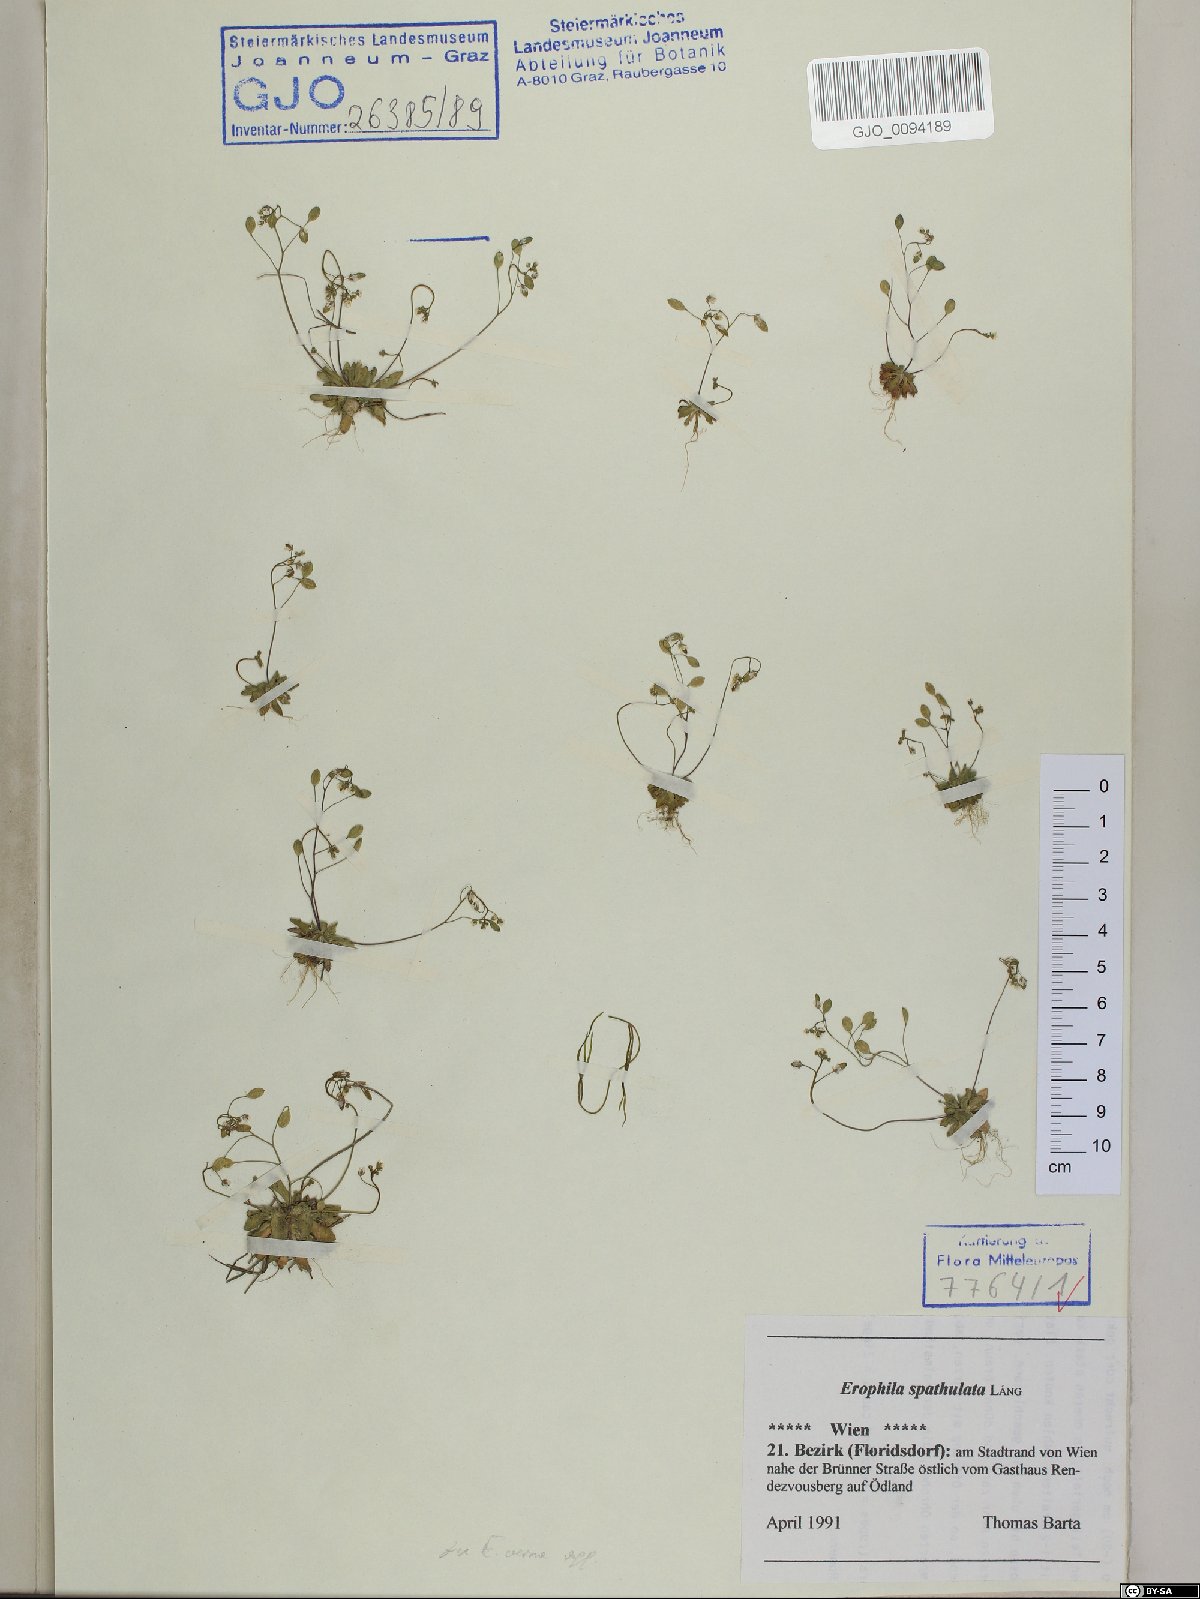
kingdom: Plantae
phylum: Tracheophyta
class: Magnoliopsida
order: Brassicales
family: Brassicaceae
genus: Draba
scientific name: Draba verna
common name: Spring draba
